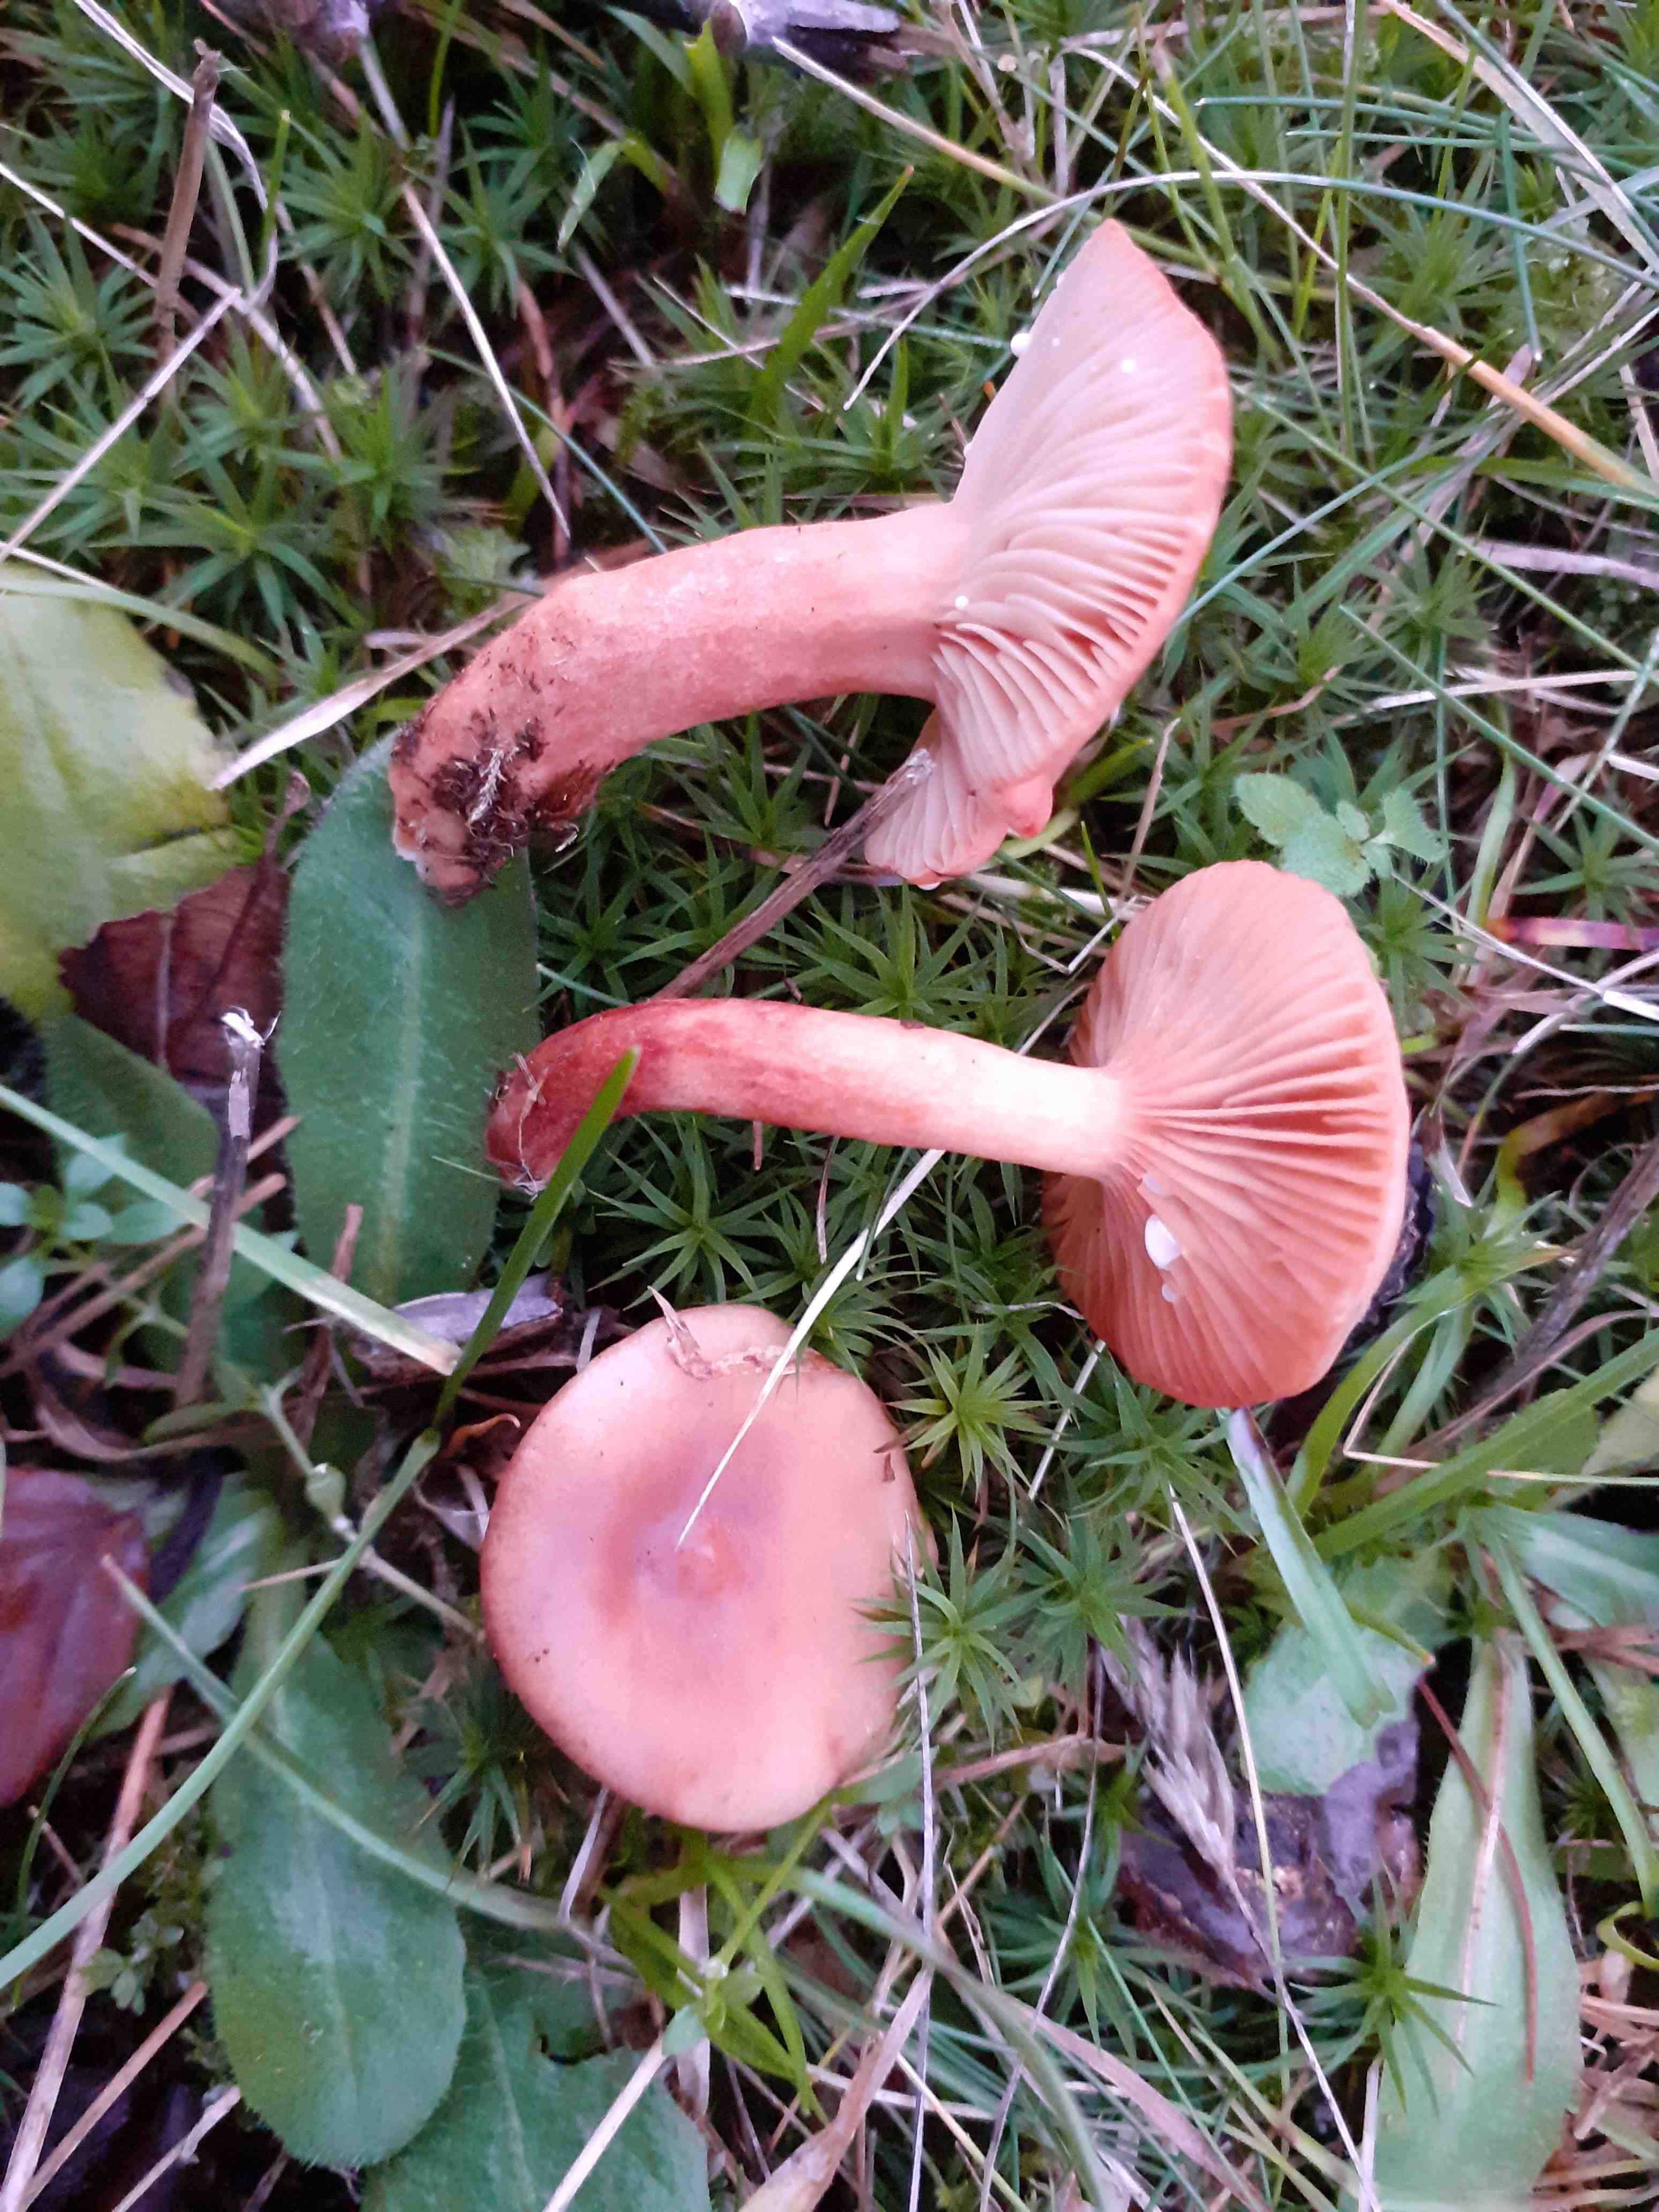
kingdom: Fungi
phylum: Basidiomycota
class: Agaricomycetes
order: Russulales
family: Russulaceae
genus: Lactarius
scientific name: Lactarius decipiens
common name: pelargonie-mælkehat
